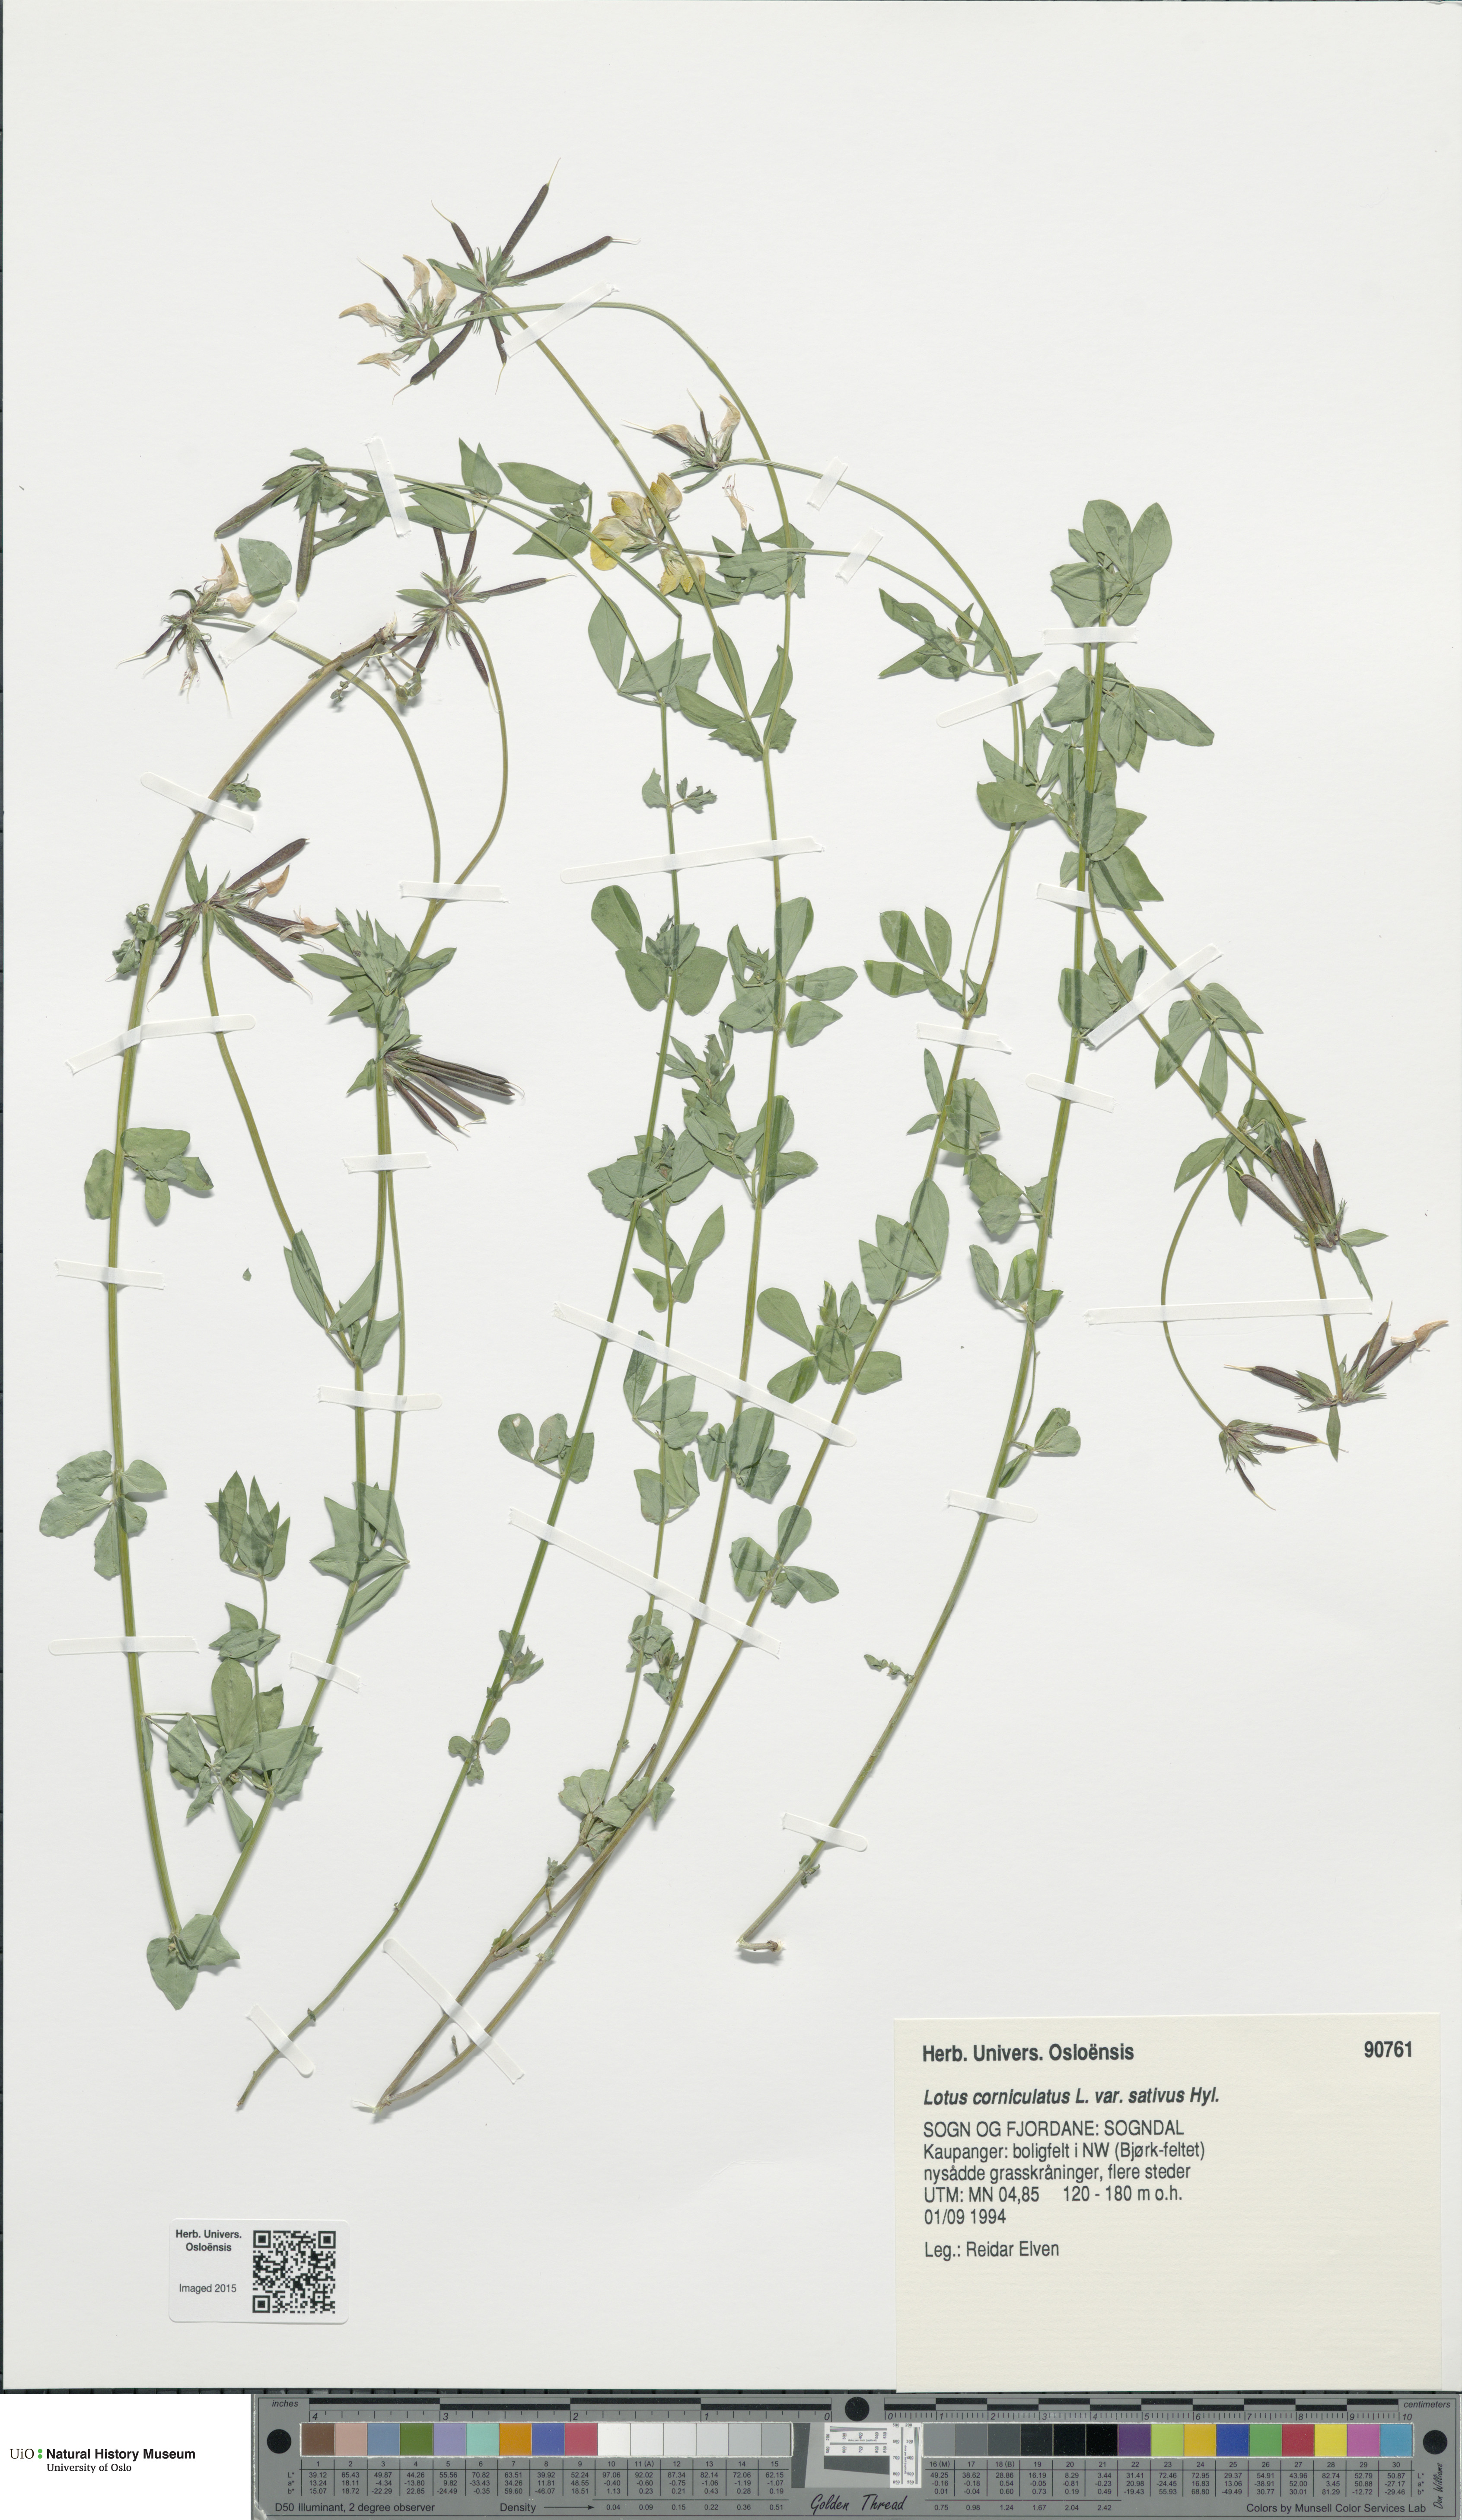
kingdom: Plantae
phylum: Tracheophyta
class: Magnoliopsida
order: Fabales
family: Fabaceae
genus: Lotus
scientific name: Lotus corniculatus
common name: Common bird's-foot-trefoil
